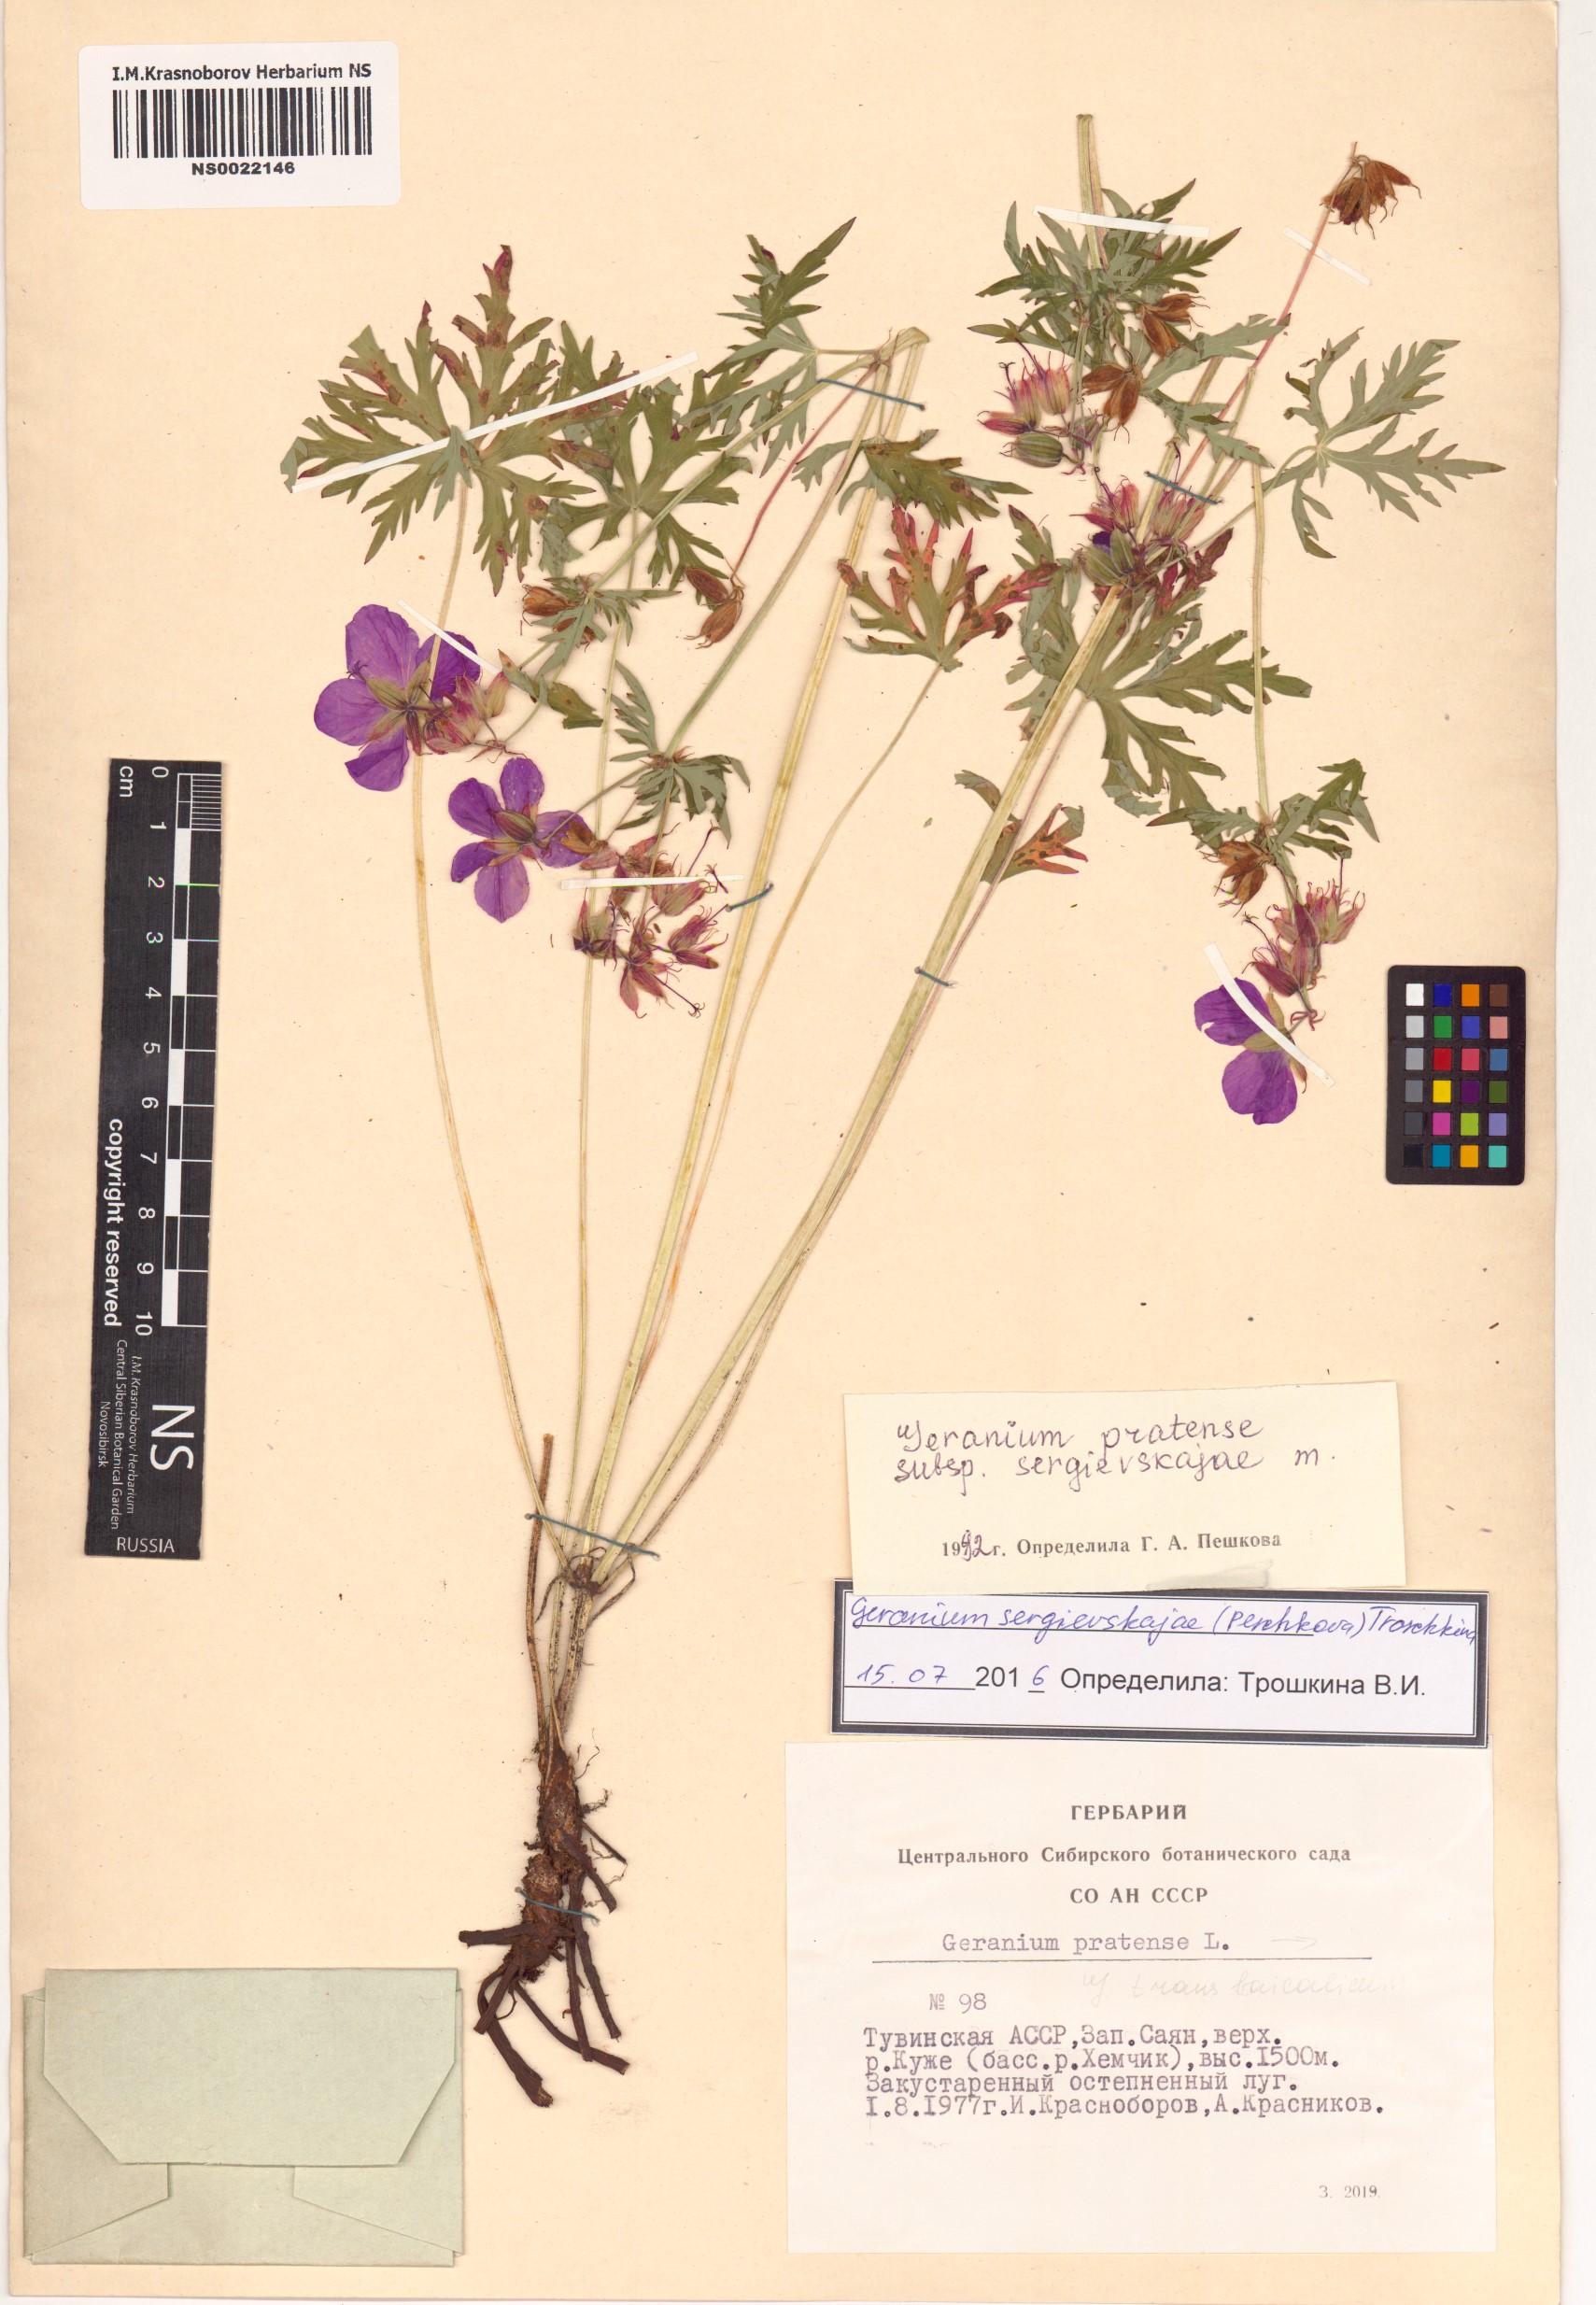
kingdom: Plantae
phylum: Tracheophyta
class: Magnoliopsida
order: Geraniales
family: Geraniaceae
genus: Geranium
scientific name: Geranium pratense
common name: Meadow crane's-bill
